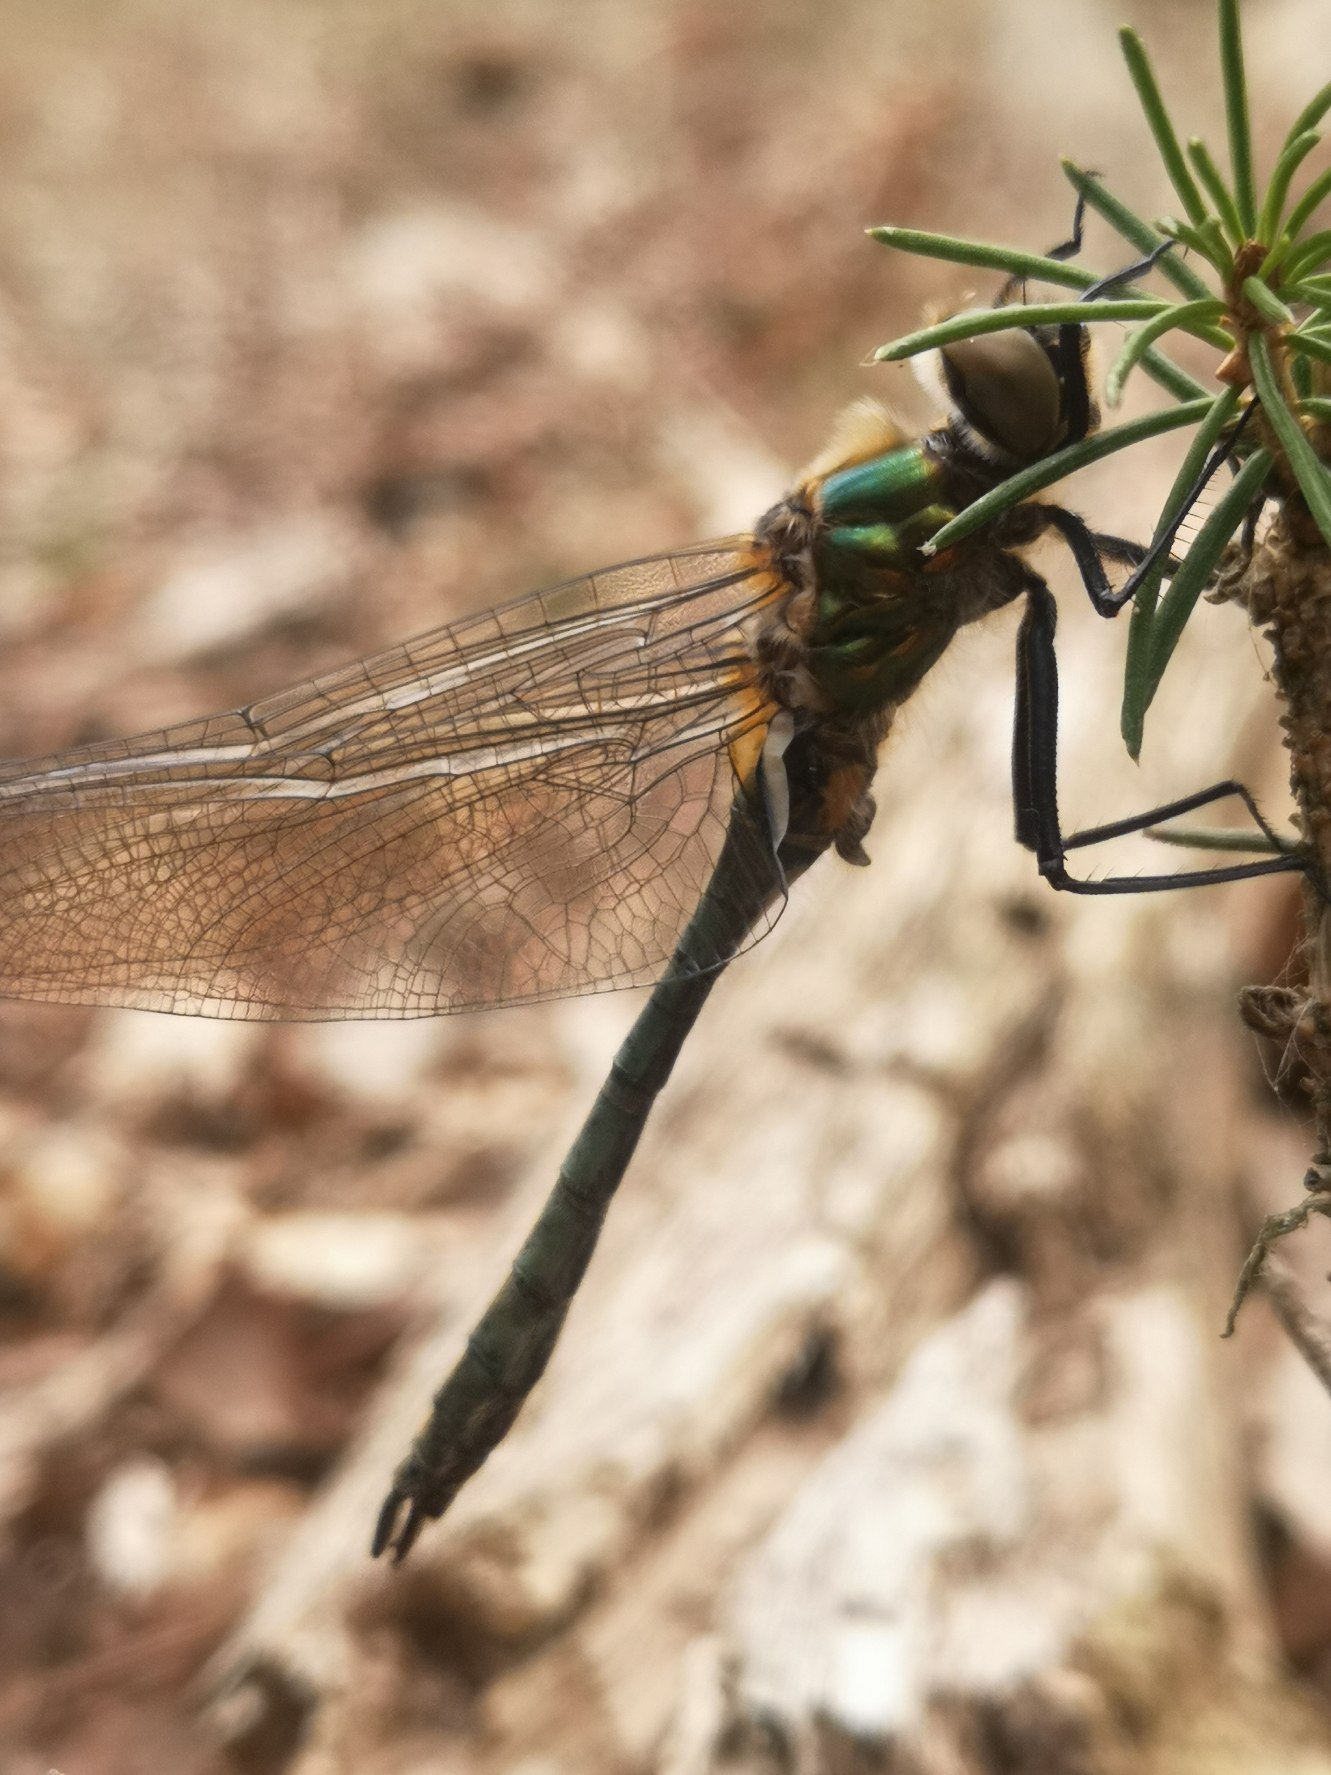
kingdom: Animalia
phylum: Arthropoda
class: Insecta
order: Odonata
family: Corduliidae
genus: Cordulia
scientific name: Cordulia aenea
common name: Grøn smaragdlibel
